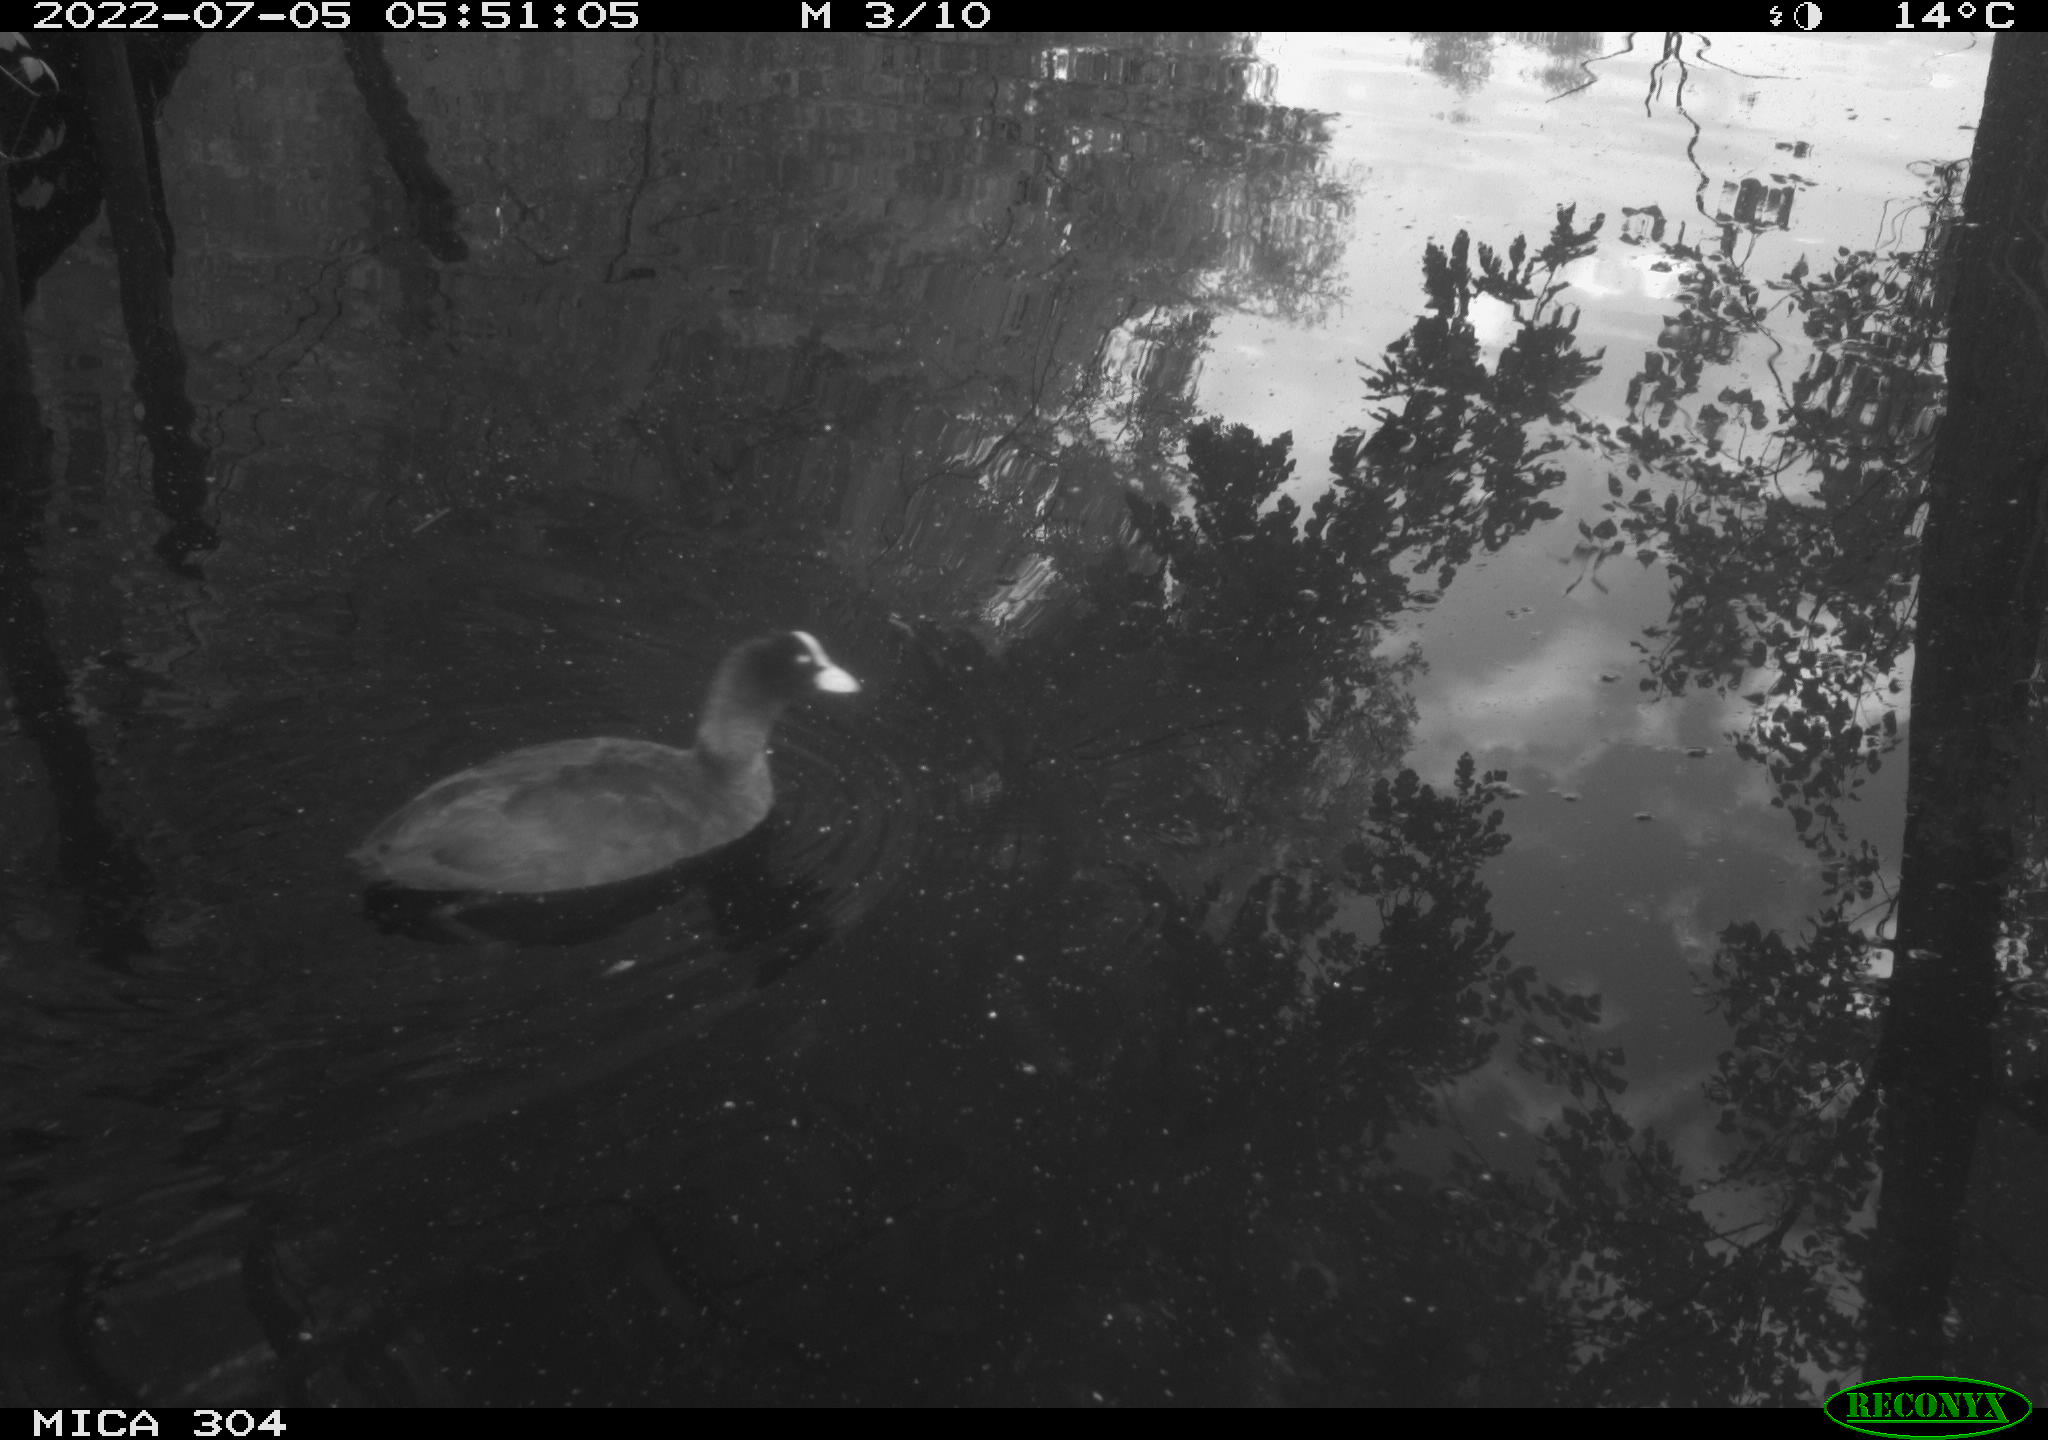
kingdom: Animalia
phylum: Chordata
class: Aves
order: Gruiformes
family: Rallidae
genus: Fulica
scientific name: Fulica atra
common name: Eurasian coot
